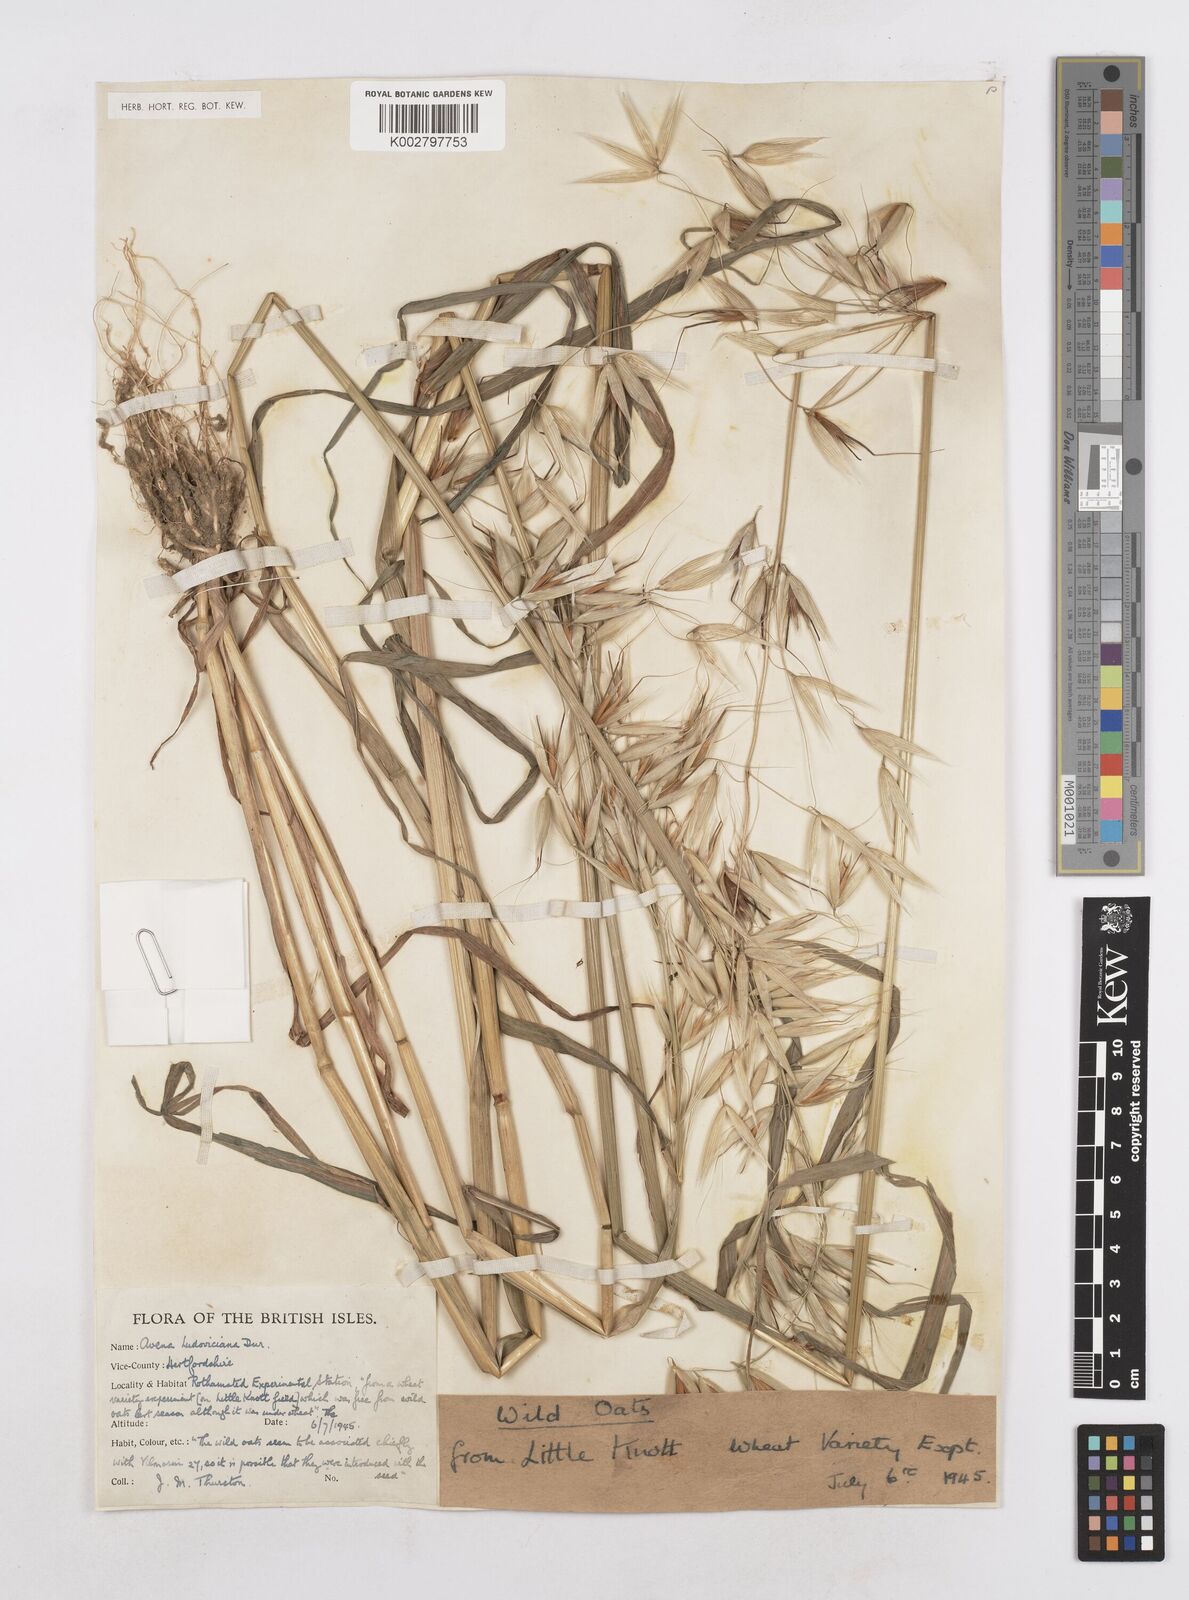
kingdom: Plantae
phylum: Tracheophyta
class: Liliopsida
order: Poales
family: Poaceae
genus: Avena
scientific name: Avena sterilis
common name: Animated oat
